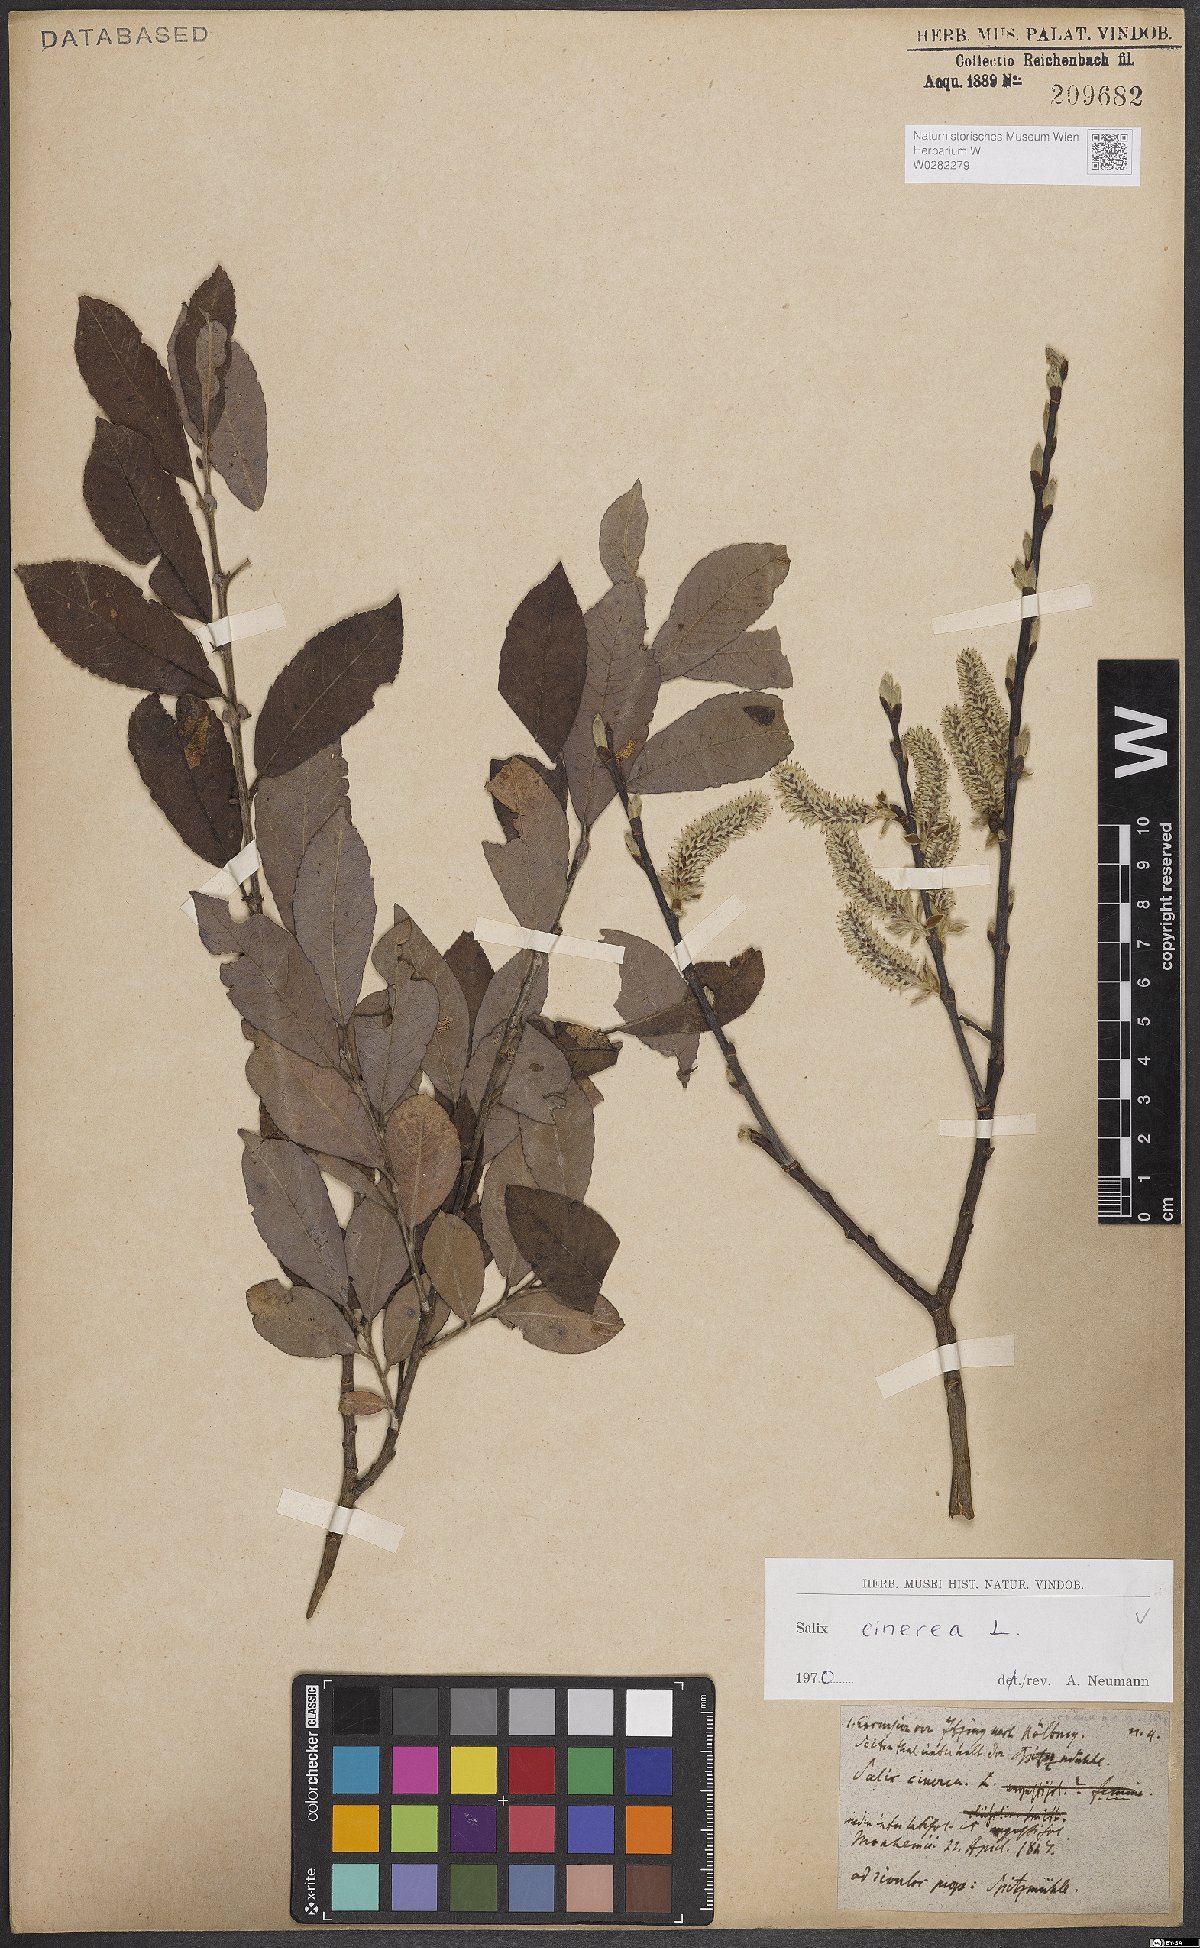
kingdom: Plantae
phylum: Tracheophyta
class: Magnoliopsida
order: Malpighiales
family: Salicaceae
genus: Salix
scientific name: Salix cinerea
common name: Common sallow
